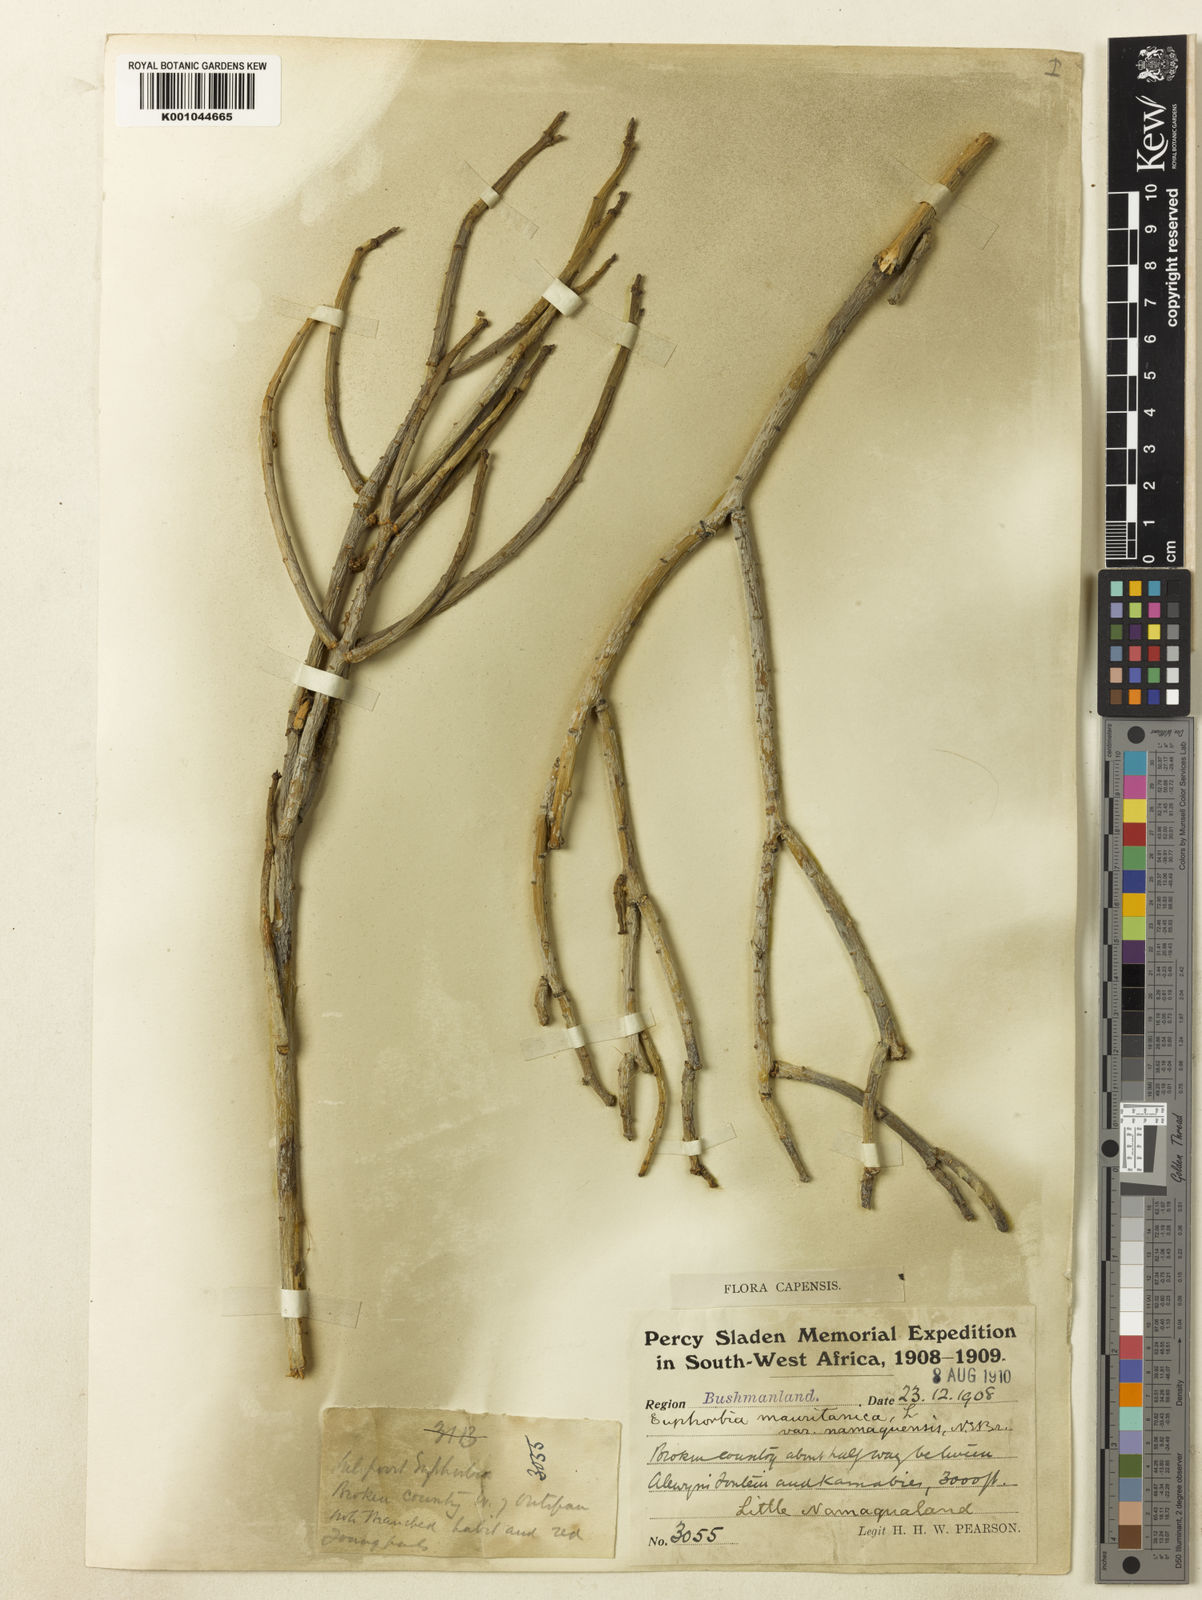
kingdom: Plantae
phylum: Tracheophyta
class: Magnoliopsida
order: Malpighiales
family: Euphorbiaceae
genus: Euphorbia
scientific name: Euphorbia mauritanica
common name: Jackal's-food
